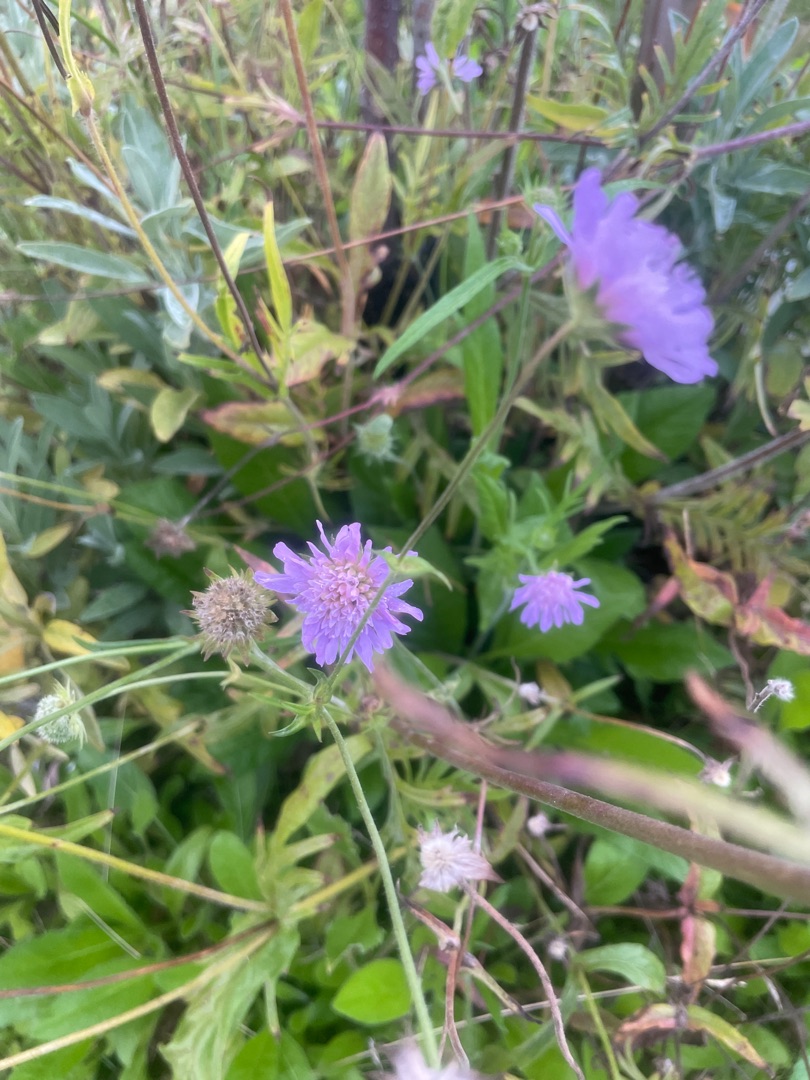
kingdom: Plantae
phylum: Tracheophyta
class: Magnoliopsida
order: Dipsacales
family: Caprifoliaceae
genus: Knautia
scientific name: Knautia arvensis
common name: Blåhat
